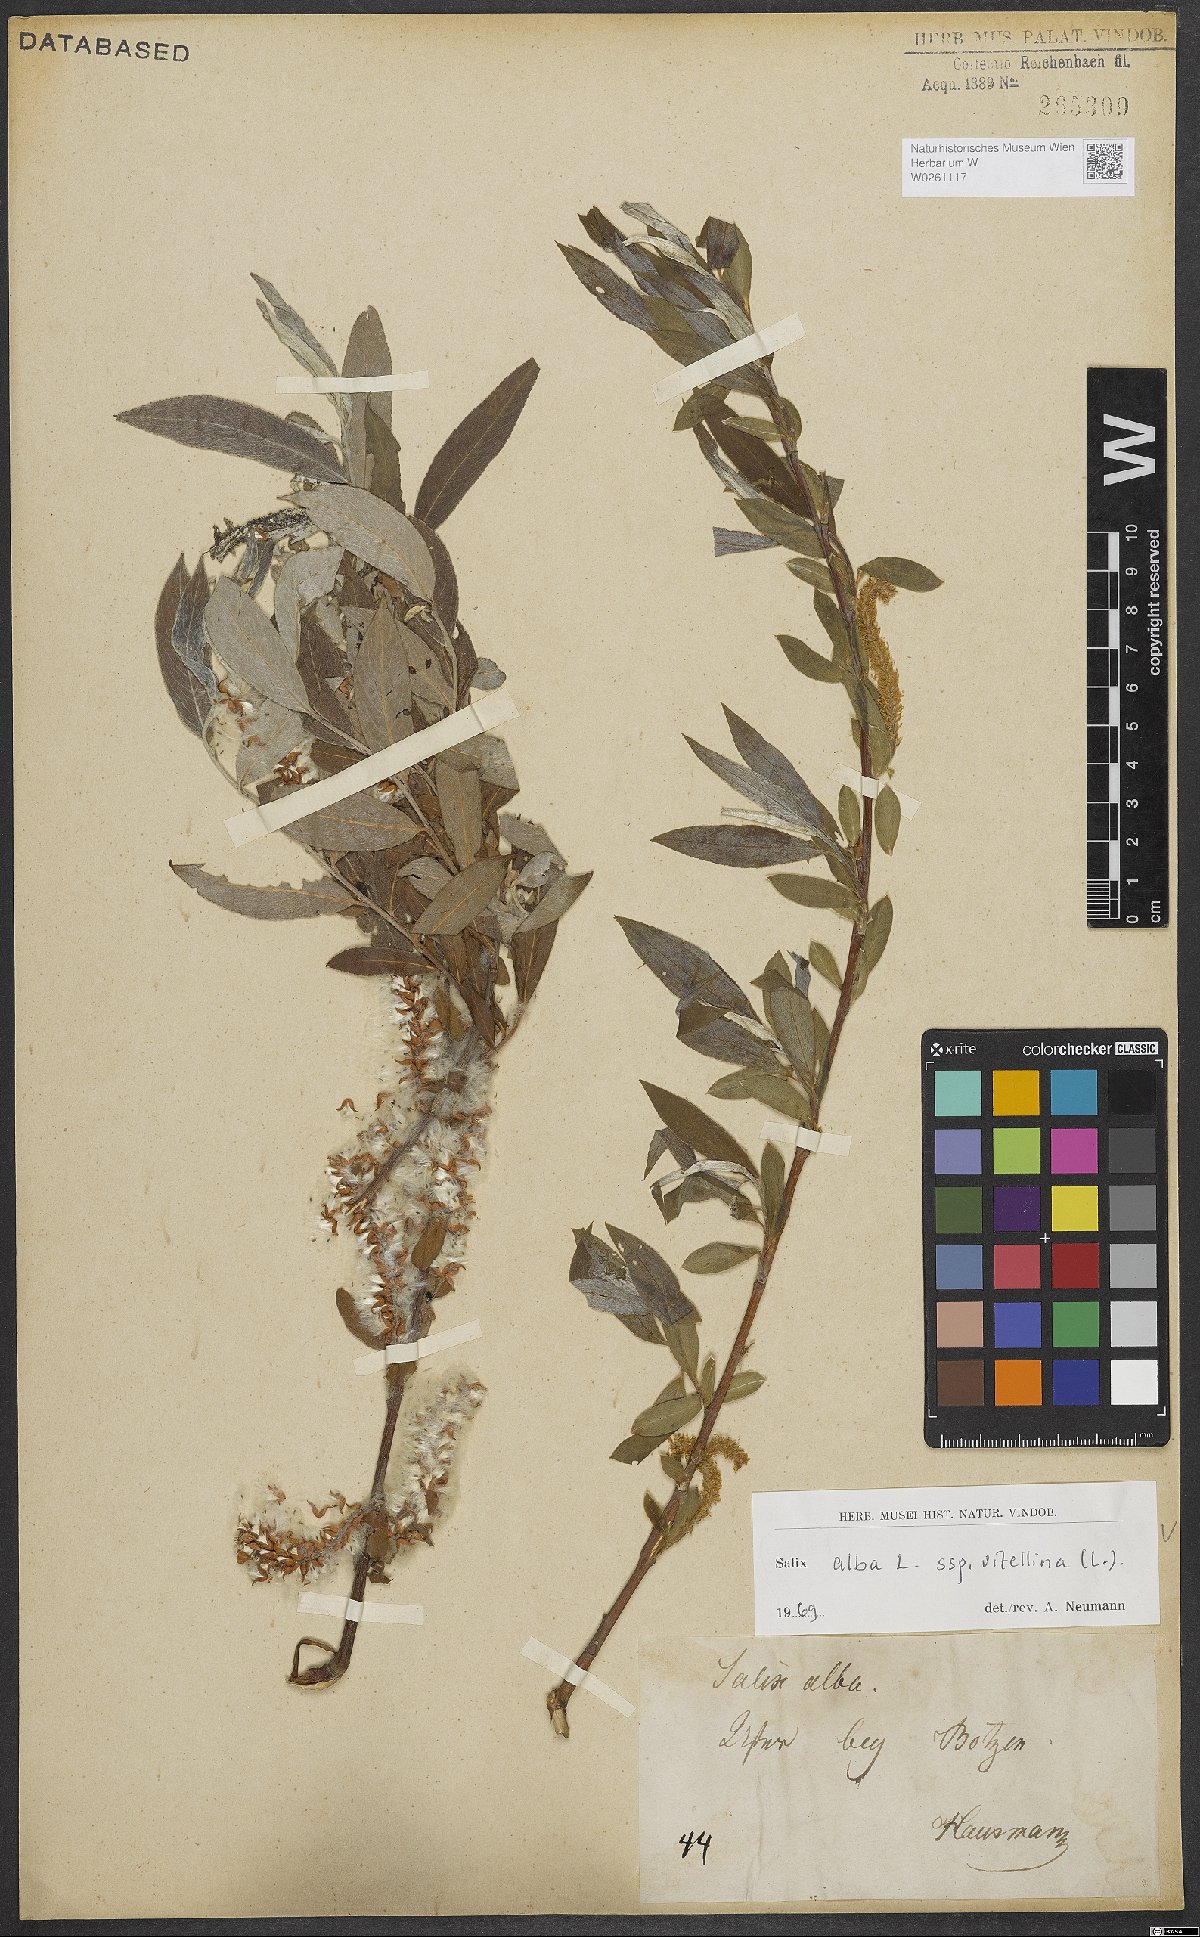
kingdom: Plantae
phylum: Tracheophyta
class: Magnoliopsida
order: Malpighiales
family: Salicaceae
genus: Salix
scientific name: Salix alba
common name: White willow
